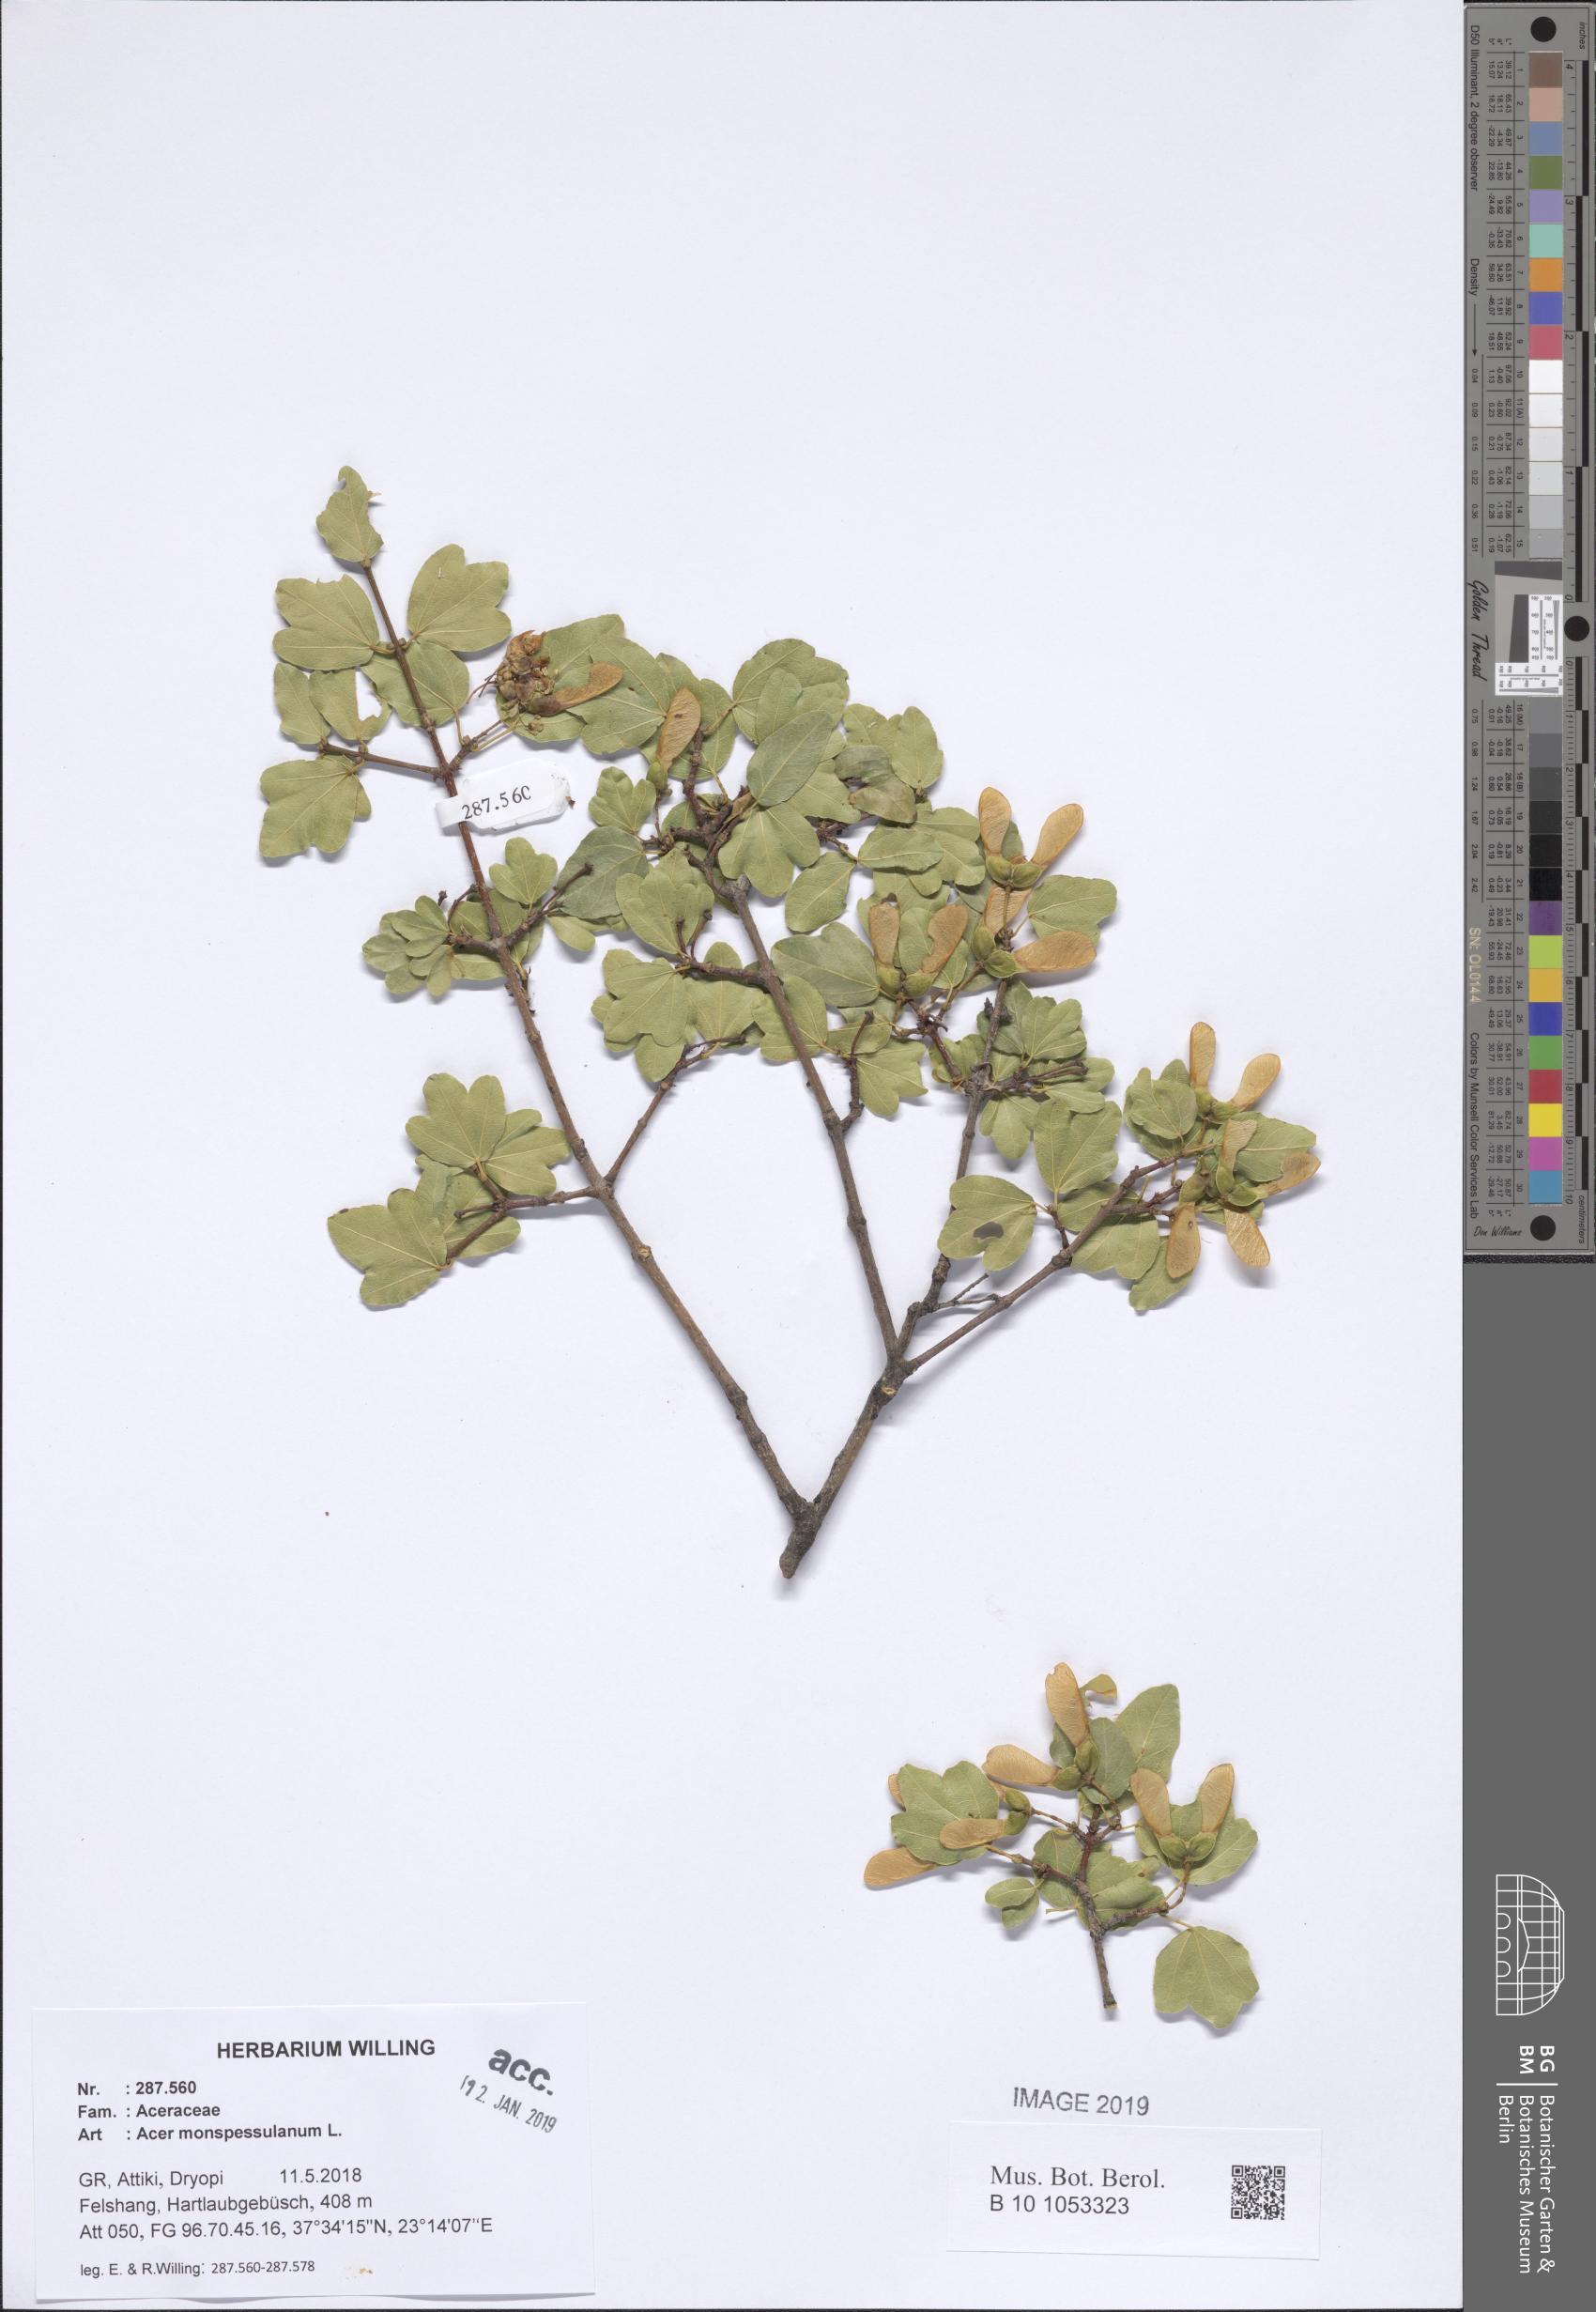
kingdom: Plantae
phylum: Tracheophyta
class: Magnoliopsida
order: Sapindales
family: Sapindaceae
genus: Acer
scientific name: Acer monspessulanum
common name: Montpellier maple
